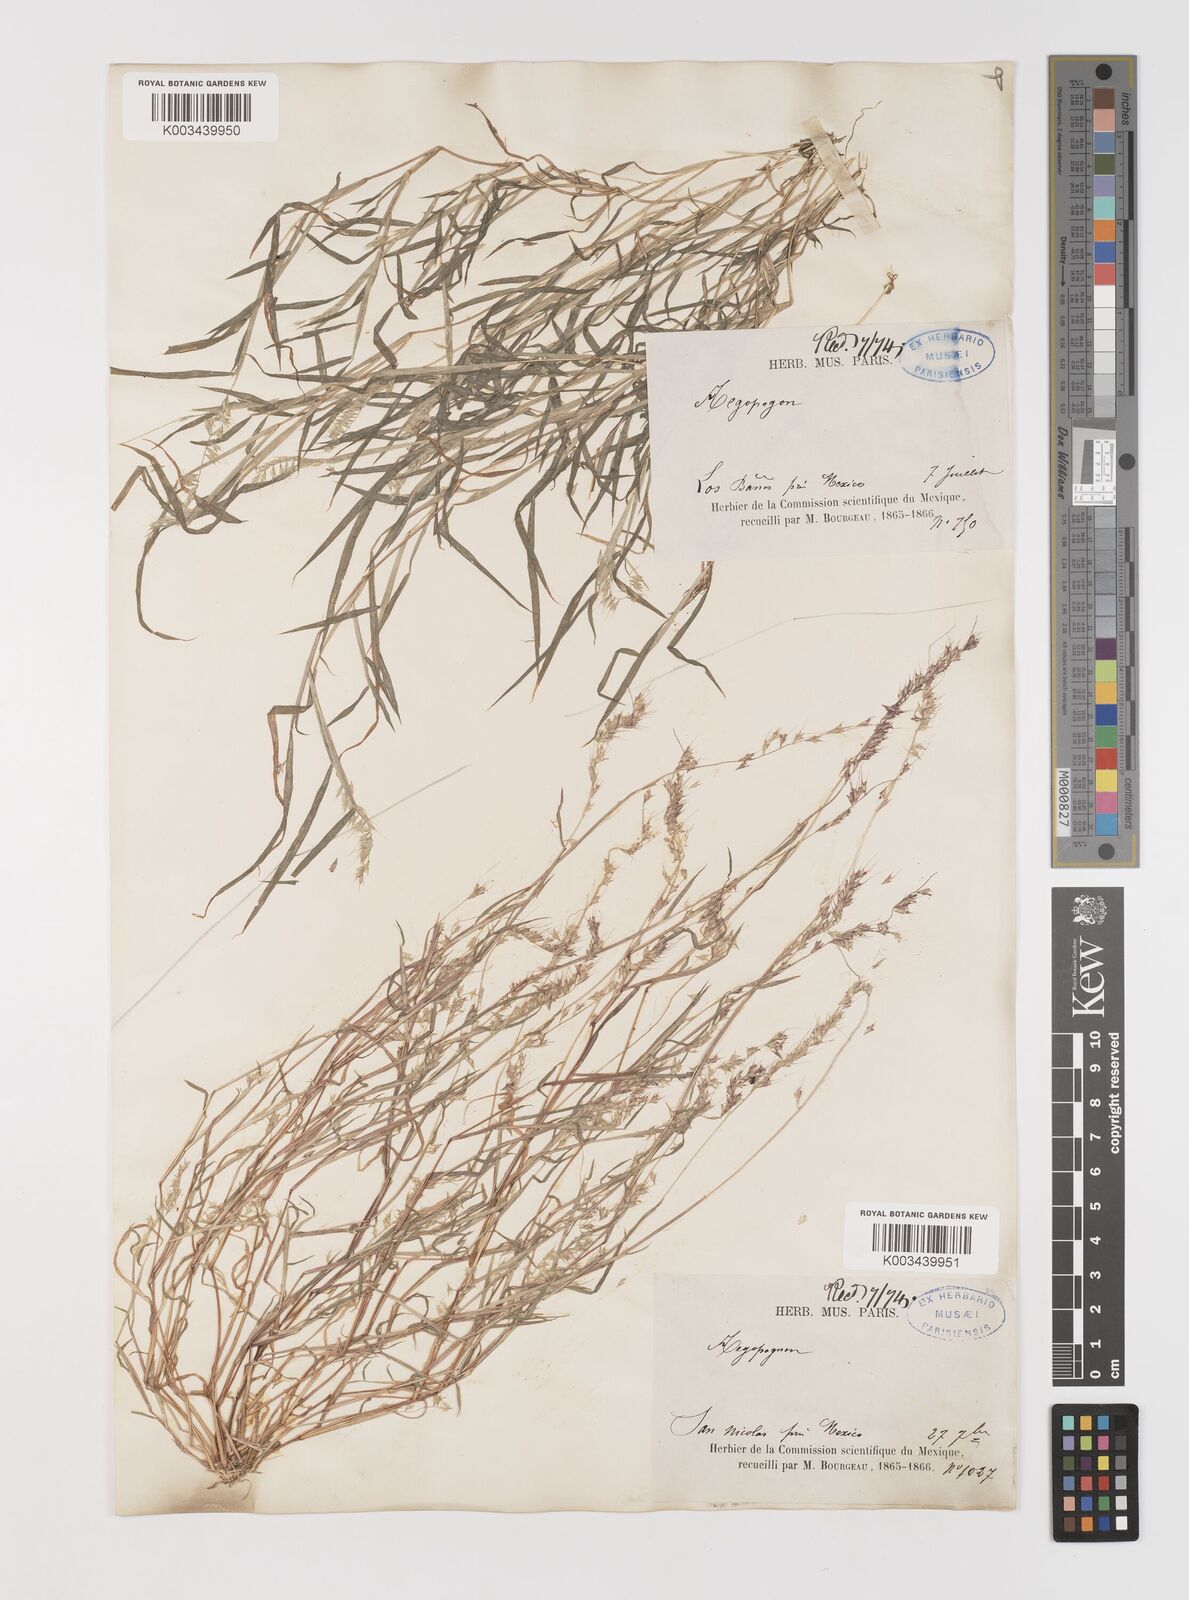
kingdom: Plantae
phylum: Tracheophyta
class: Liliopsida
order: Poales
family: Poaceae
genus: Muhlenbergia
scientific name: Muhlenbergia uniseta
